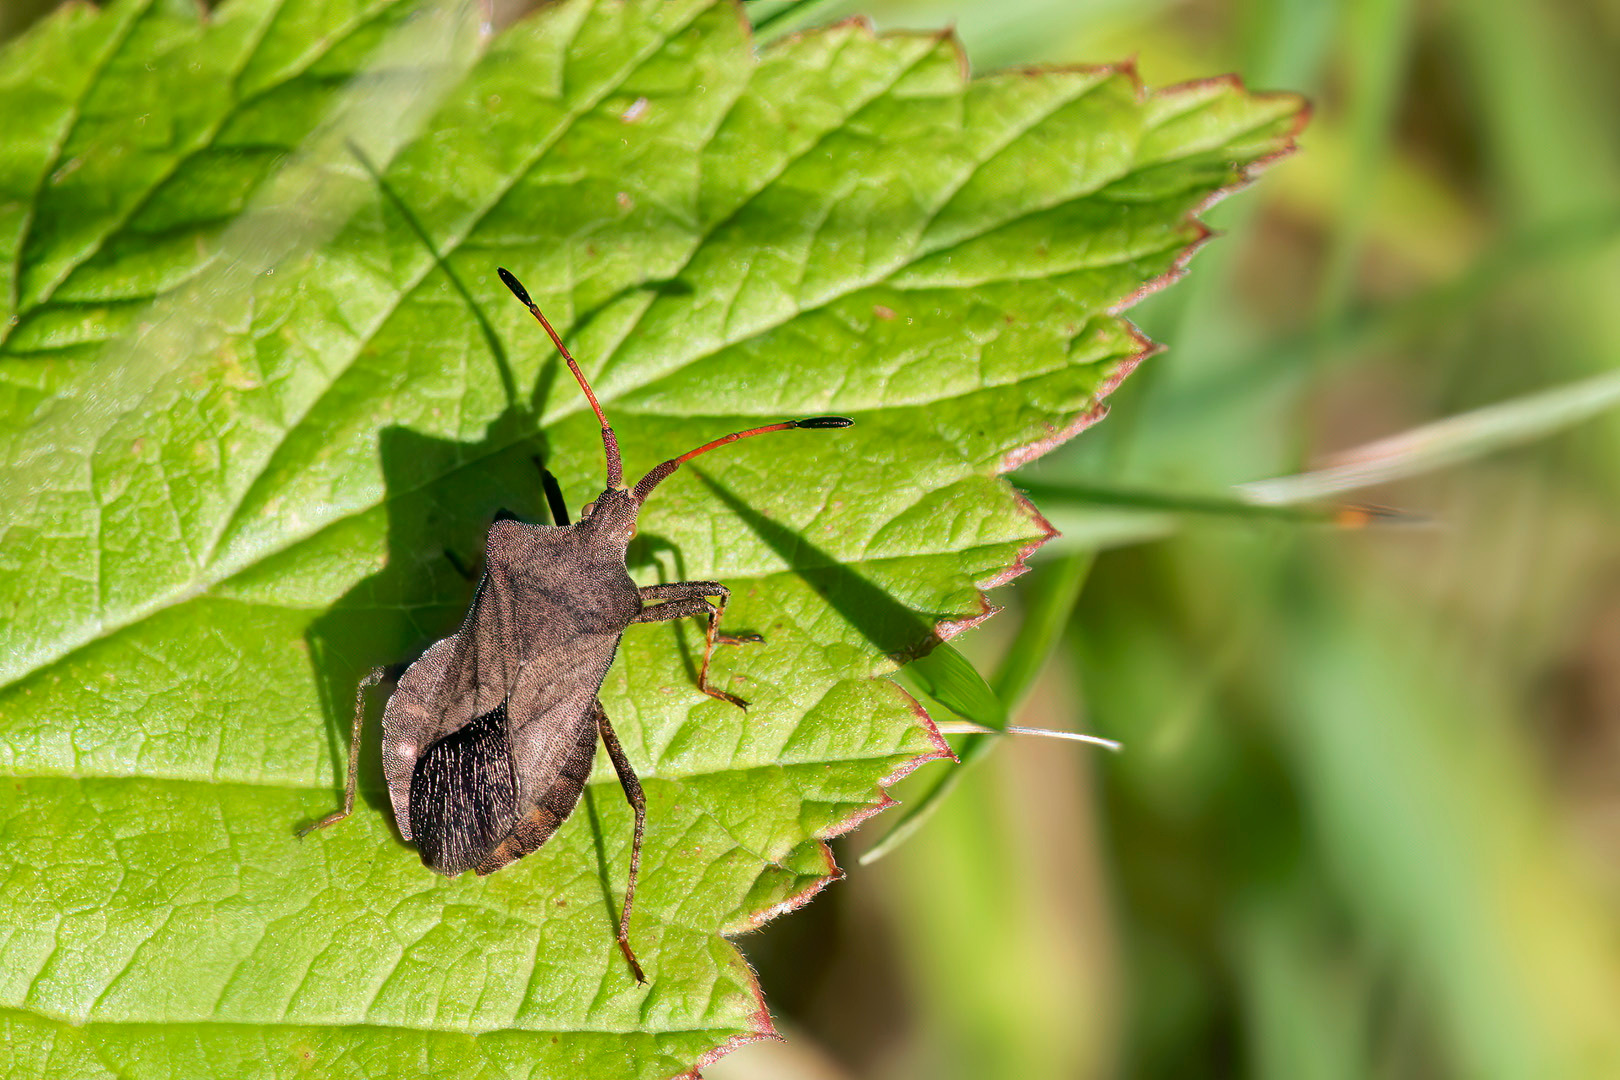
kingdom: Animalia
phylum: Arthropoda
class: Insecta
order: Hemiptera
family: Coreidae
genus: Coreus
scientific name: Coreus marginatus
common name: Skræppetæge
